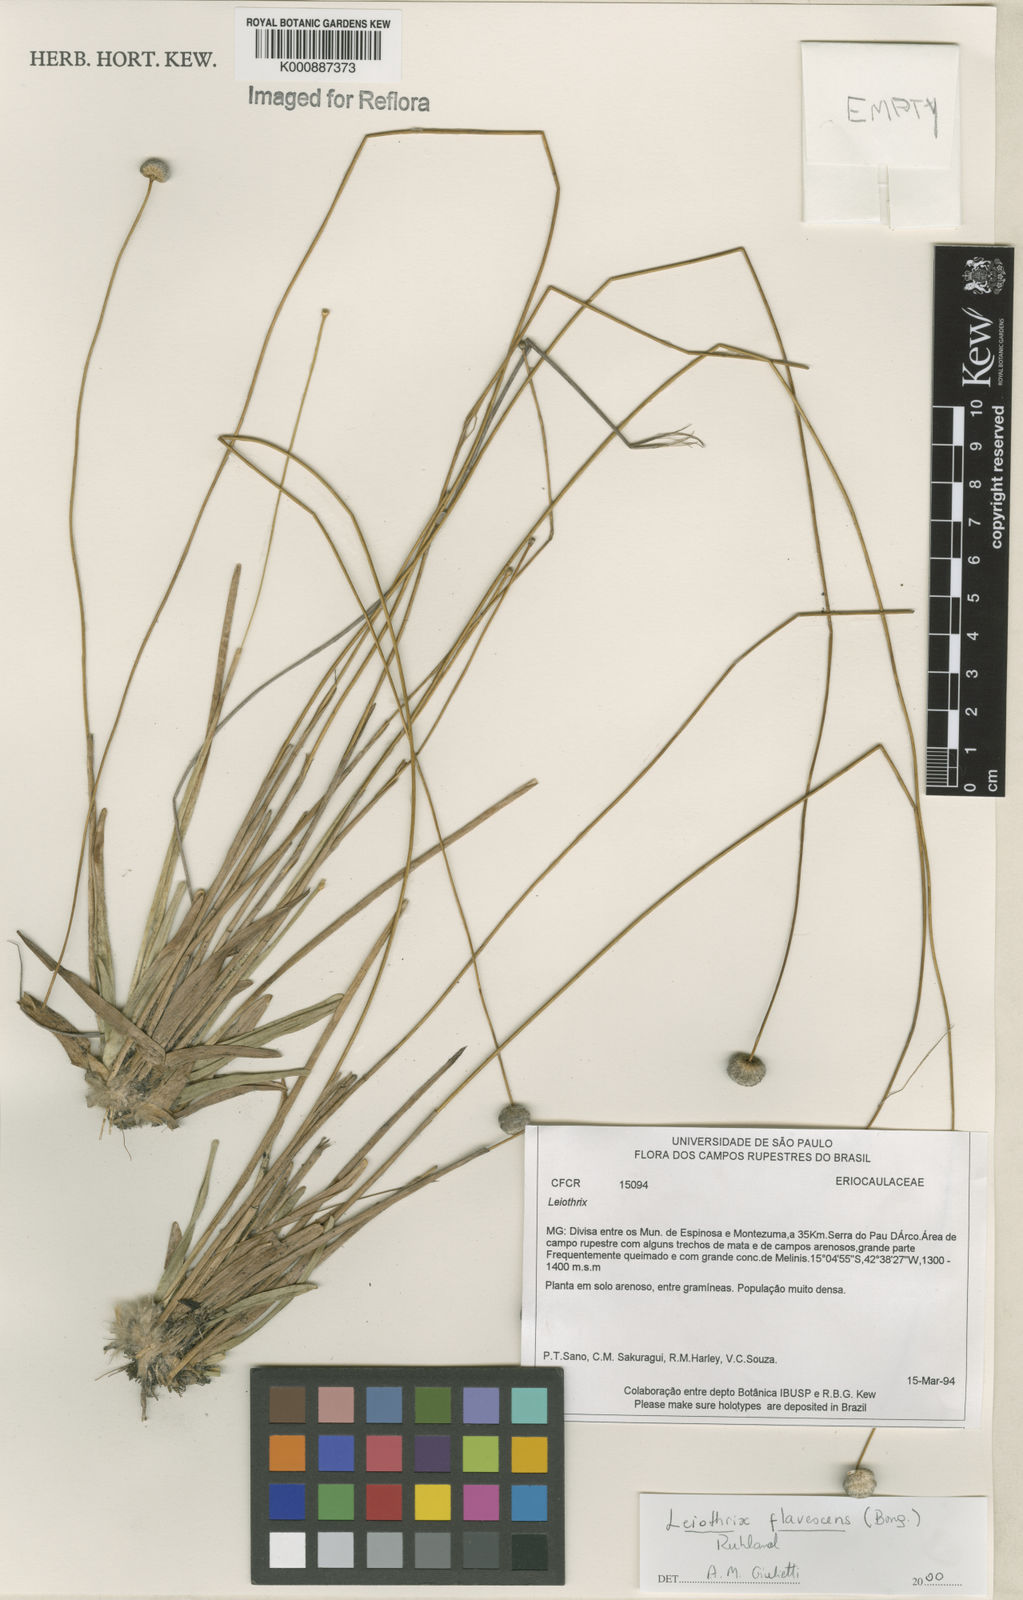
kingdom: Plantae
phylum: Tracheophyta
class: Liliopsida
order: Poales
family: Eriocaulaceae
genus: Leiothrix
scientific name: Leiothrix flavescens
